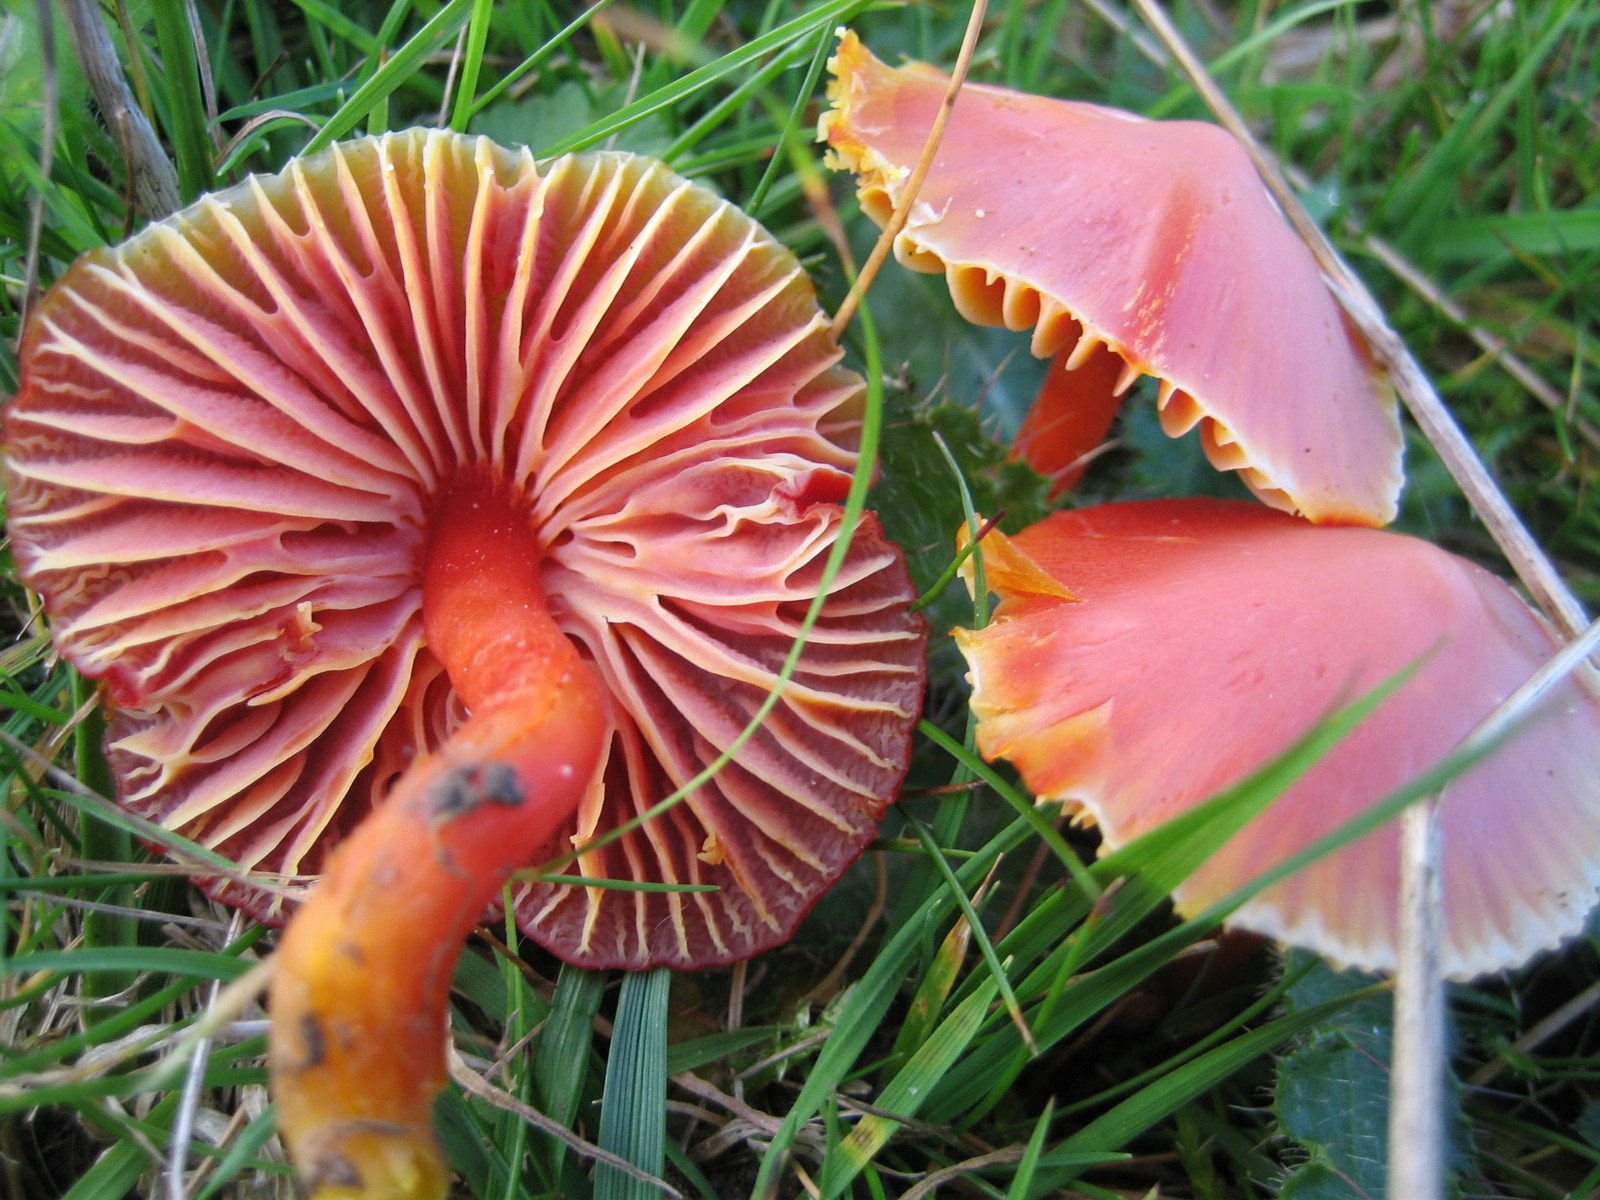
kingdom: Fungi
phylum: Basidiomycota
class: Agaricomycetes
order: Agaricales
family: Hygrophoraceae
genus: Hygrocybe
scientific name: Hygrocybe coccinea
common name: cinnober-vokshat
